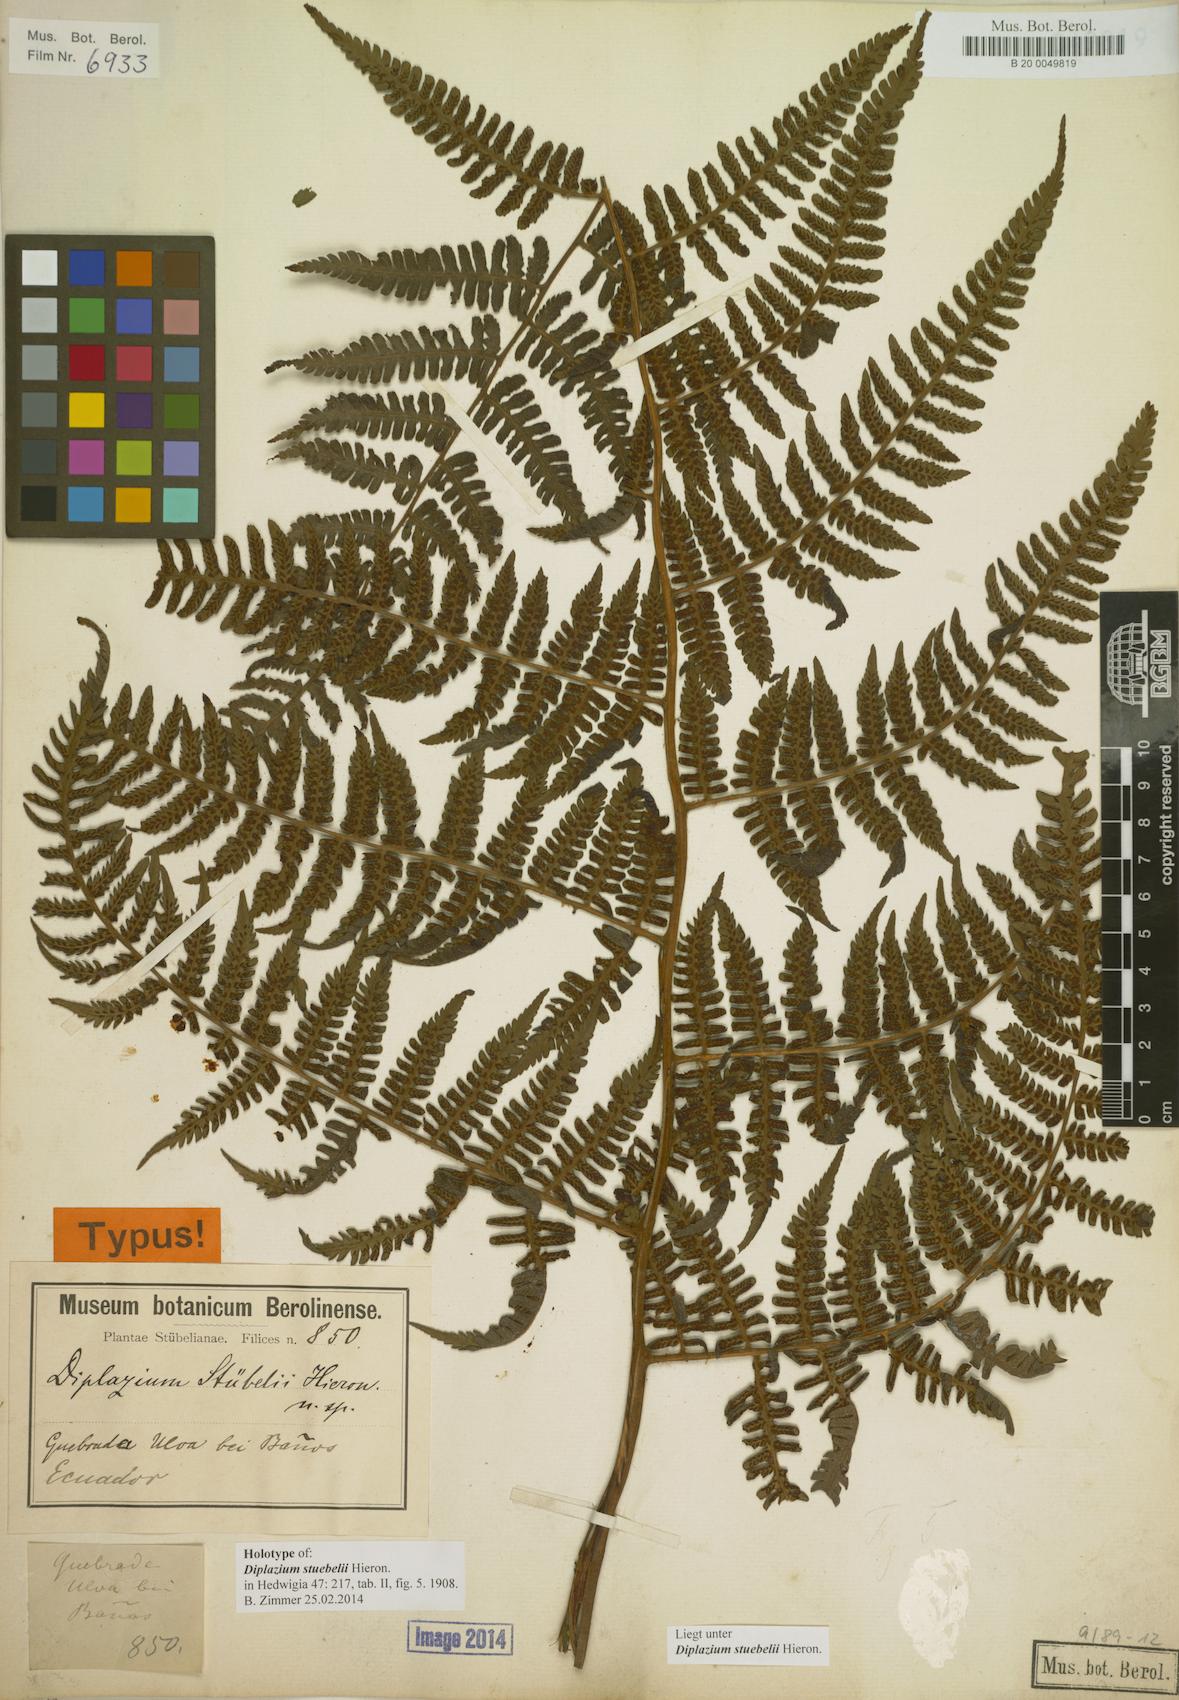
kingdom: Plantae
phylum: Tracheophyta
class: Polypodiopsida
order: Polypodiales
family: Athyriaceae
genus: Diplazium
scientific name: Diplazium stuebelii
